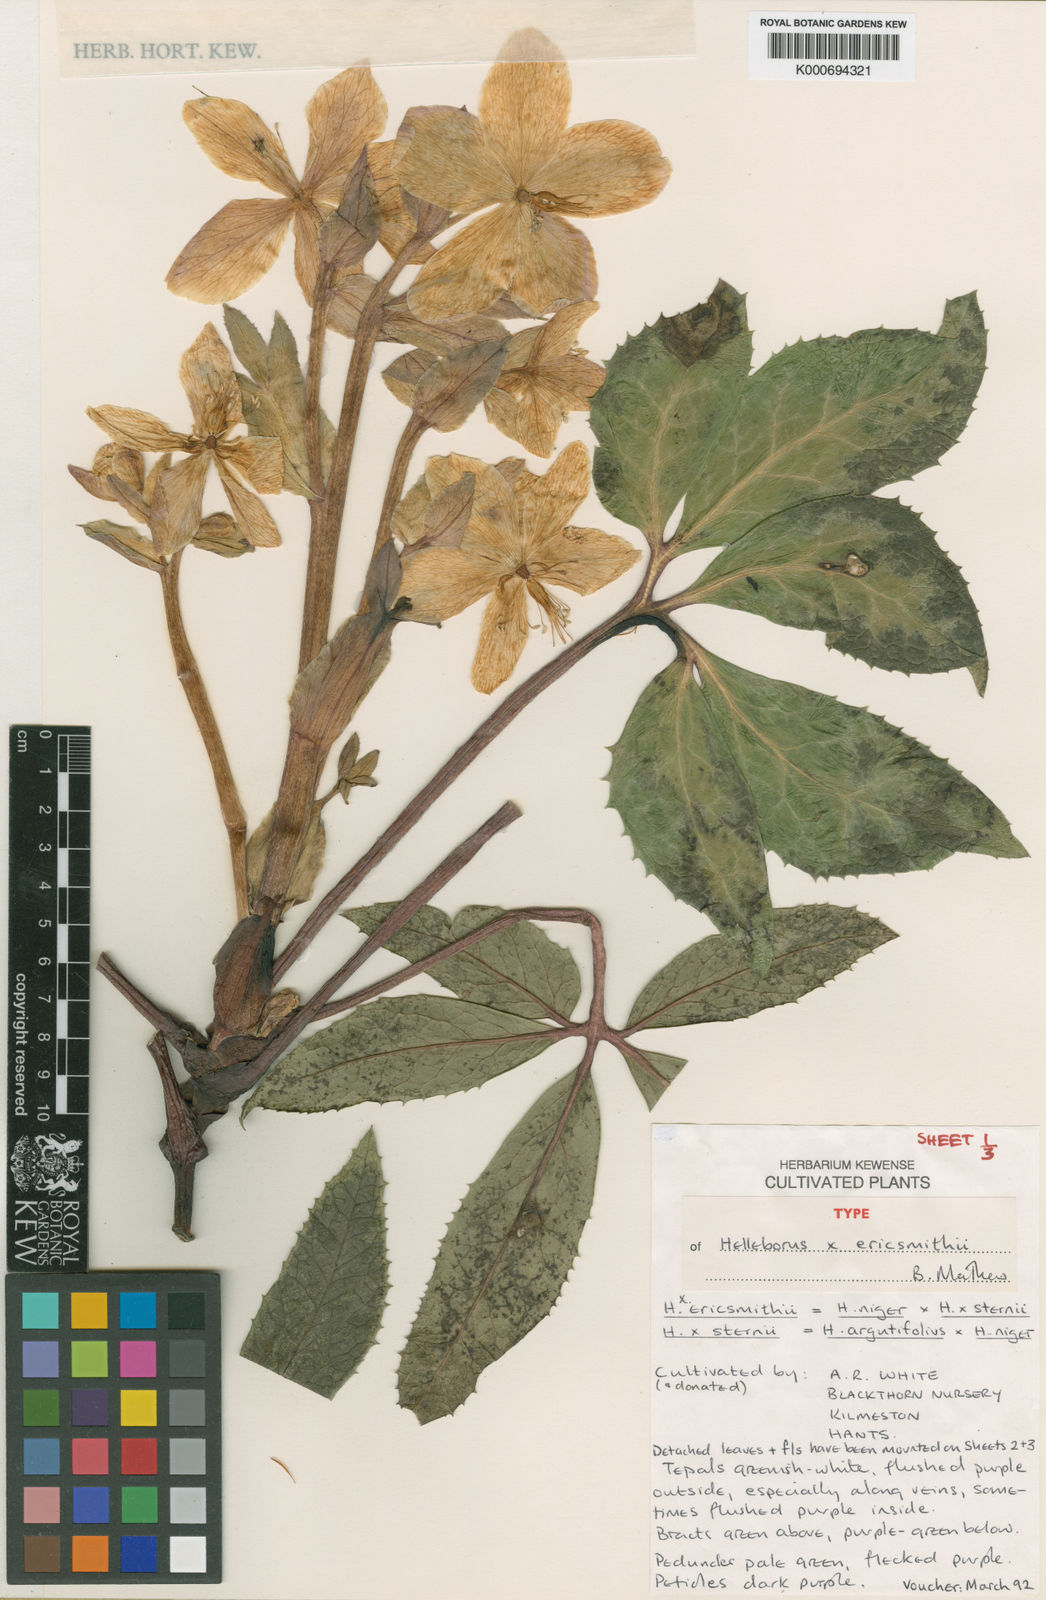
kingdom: Plantae
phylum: Tracheophyta
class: Magnoliopsida
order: Ranunculales
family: Ranunculaceae
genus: Helleborus
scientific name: Helleborus ericsmithii
